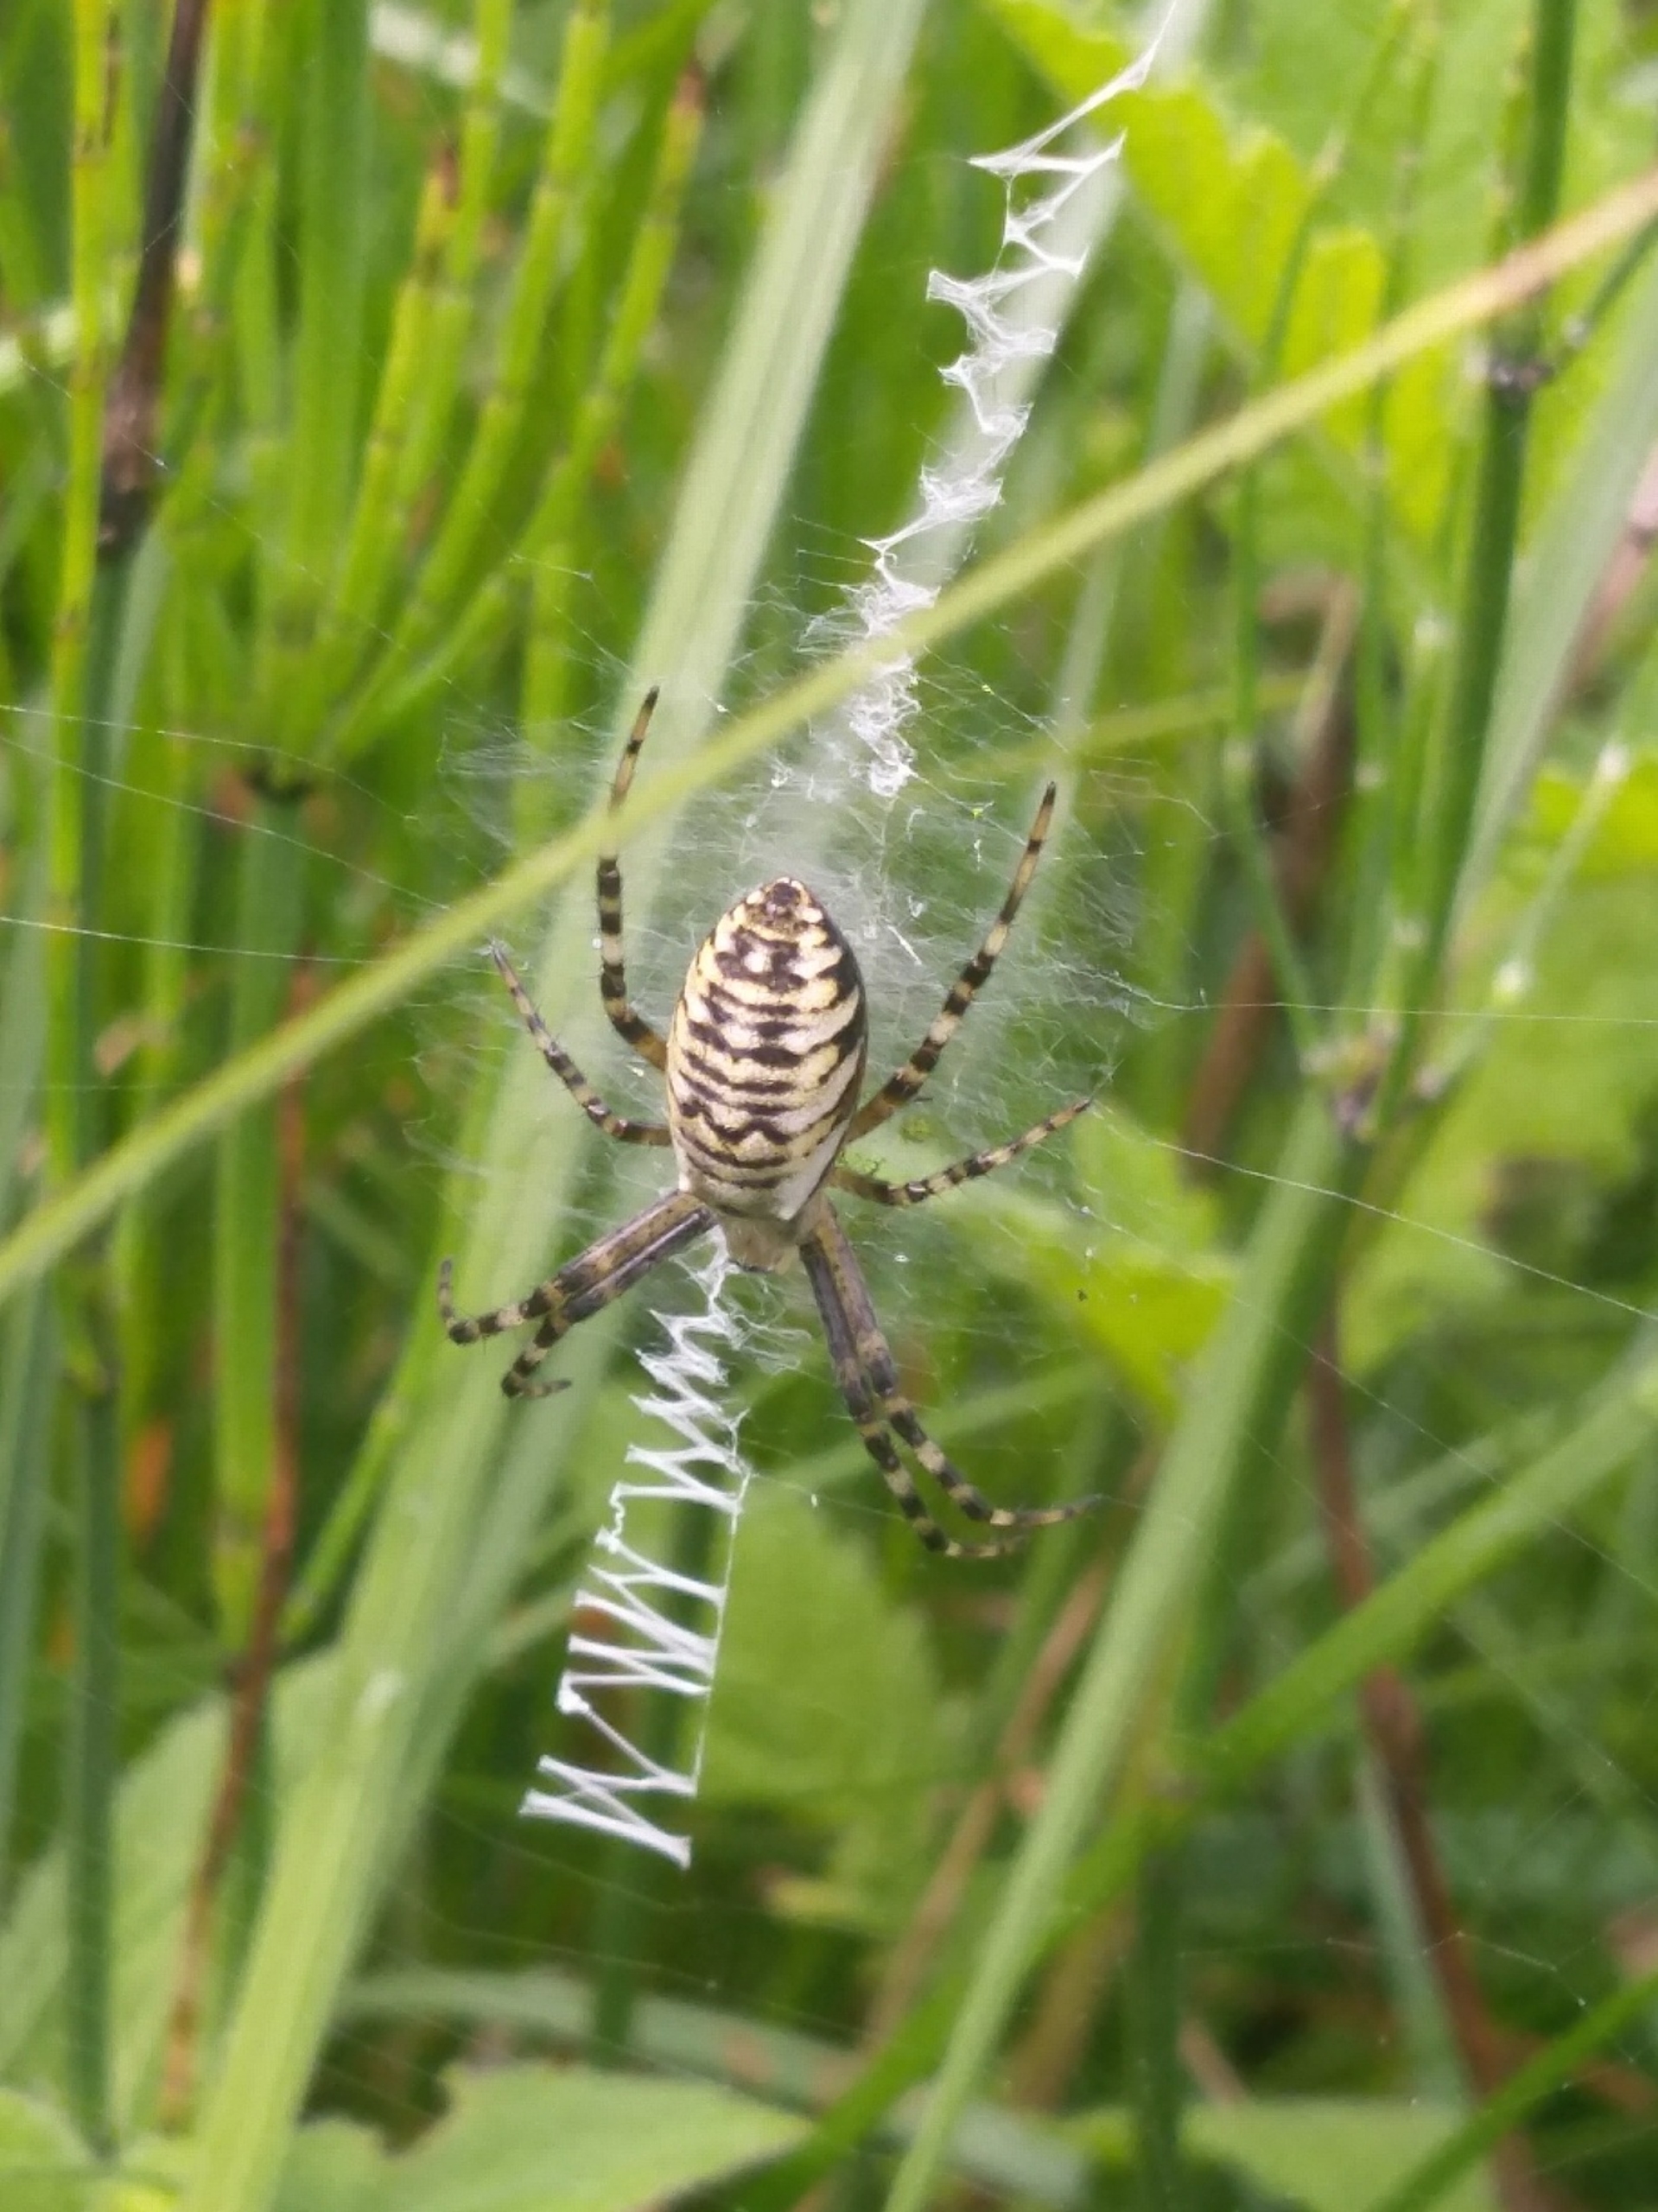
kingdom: Animalia
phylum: Arthropoda
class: Arachnida
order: Araneae
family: Araneidae
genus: Argiope
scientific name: Argiope bruennichi
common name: Hvepseedderkop
